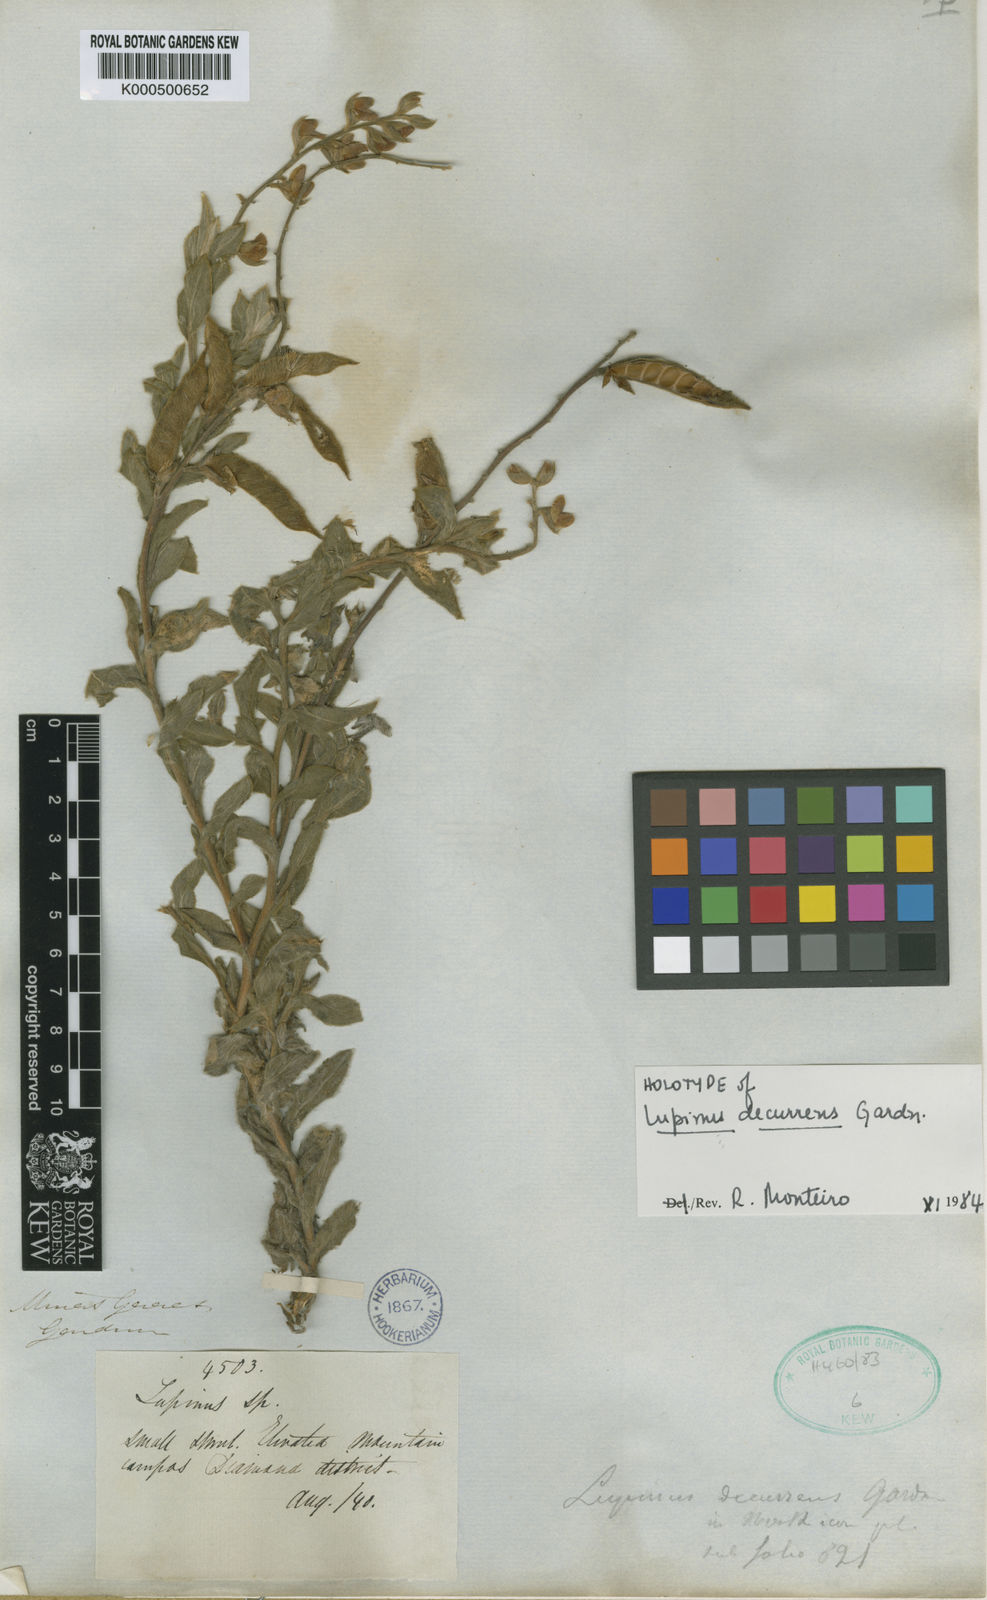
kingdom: Plantae
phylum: Tracheophyta
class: Magnoliopsida
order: Fabales
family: Fabaceae
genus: Lupinus
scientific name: Lupinus decurrens
